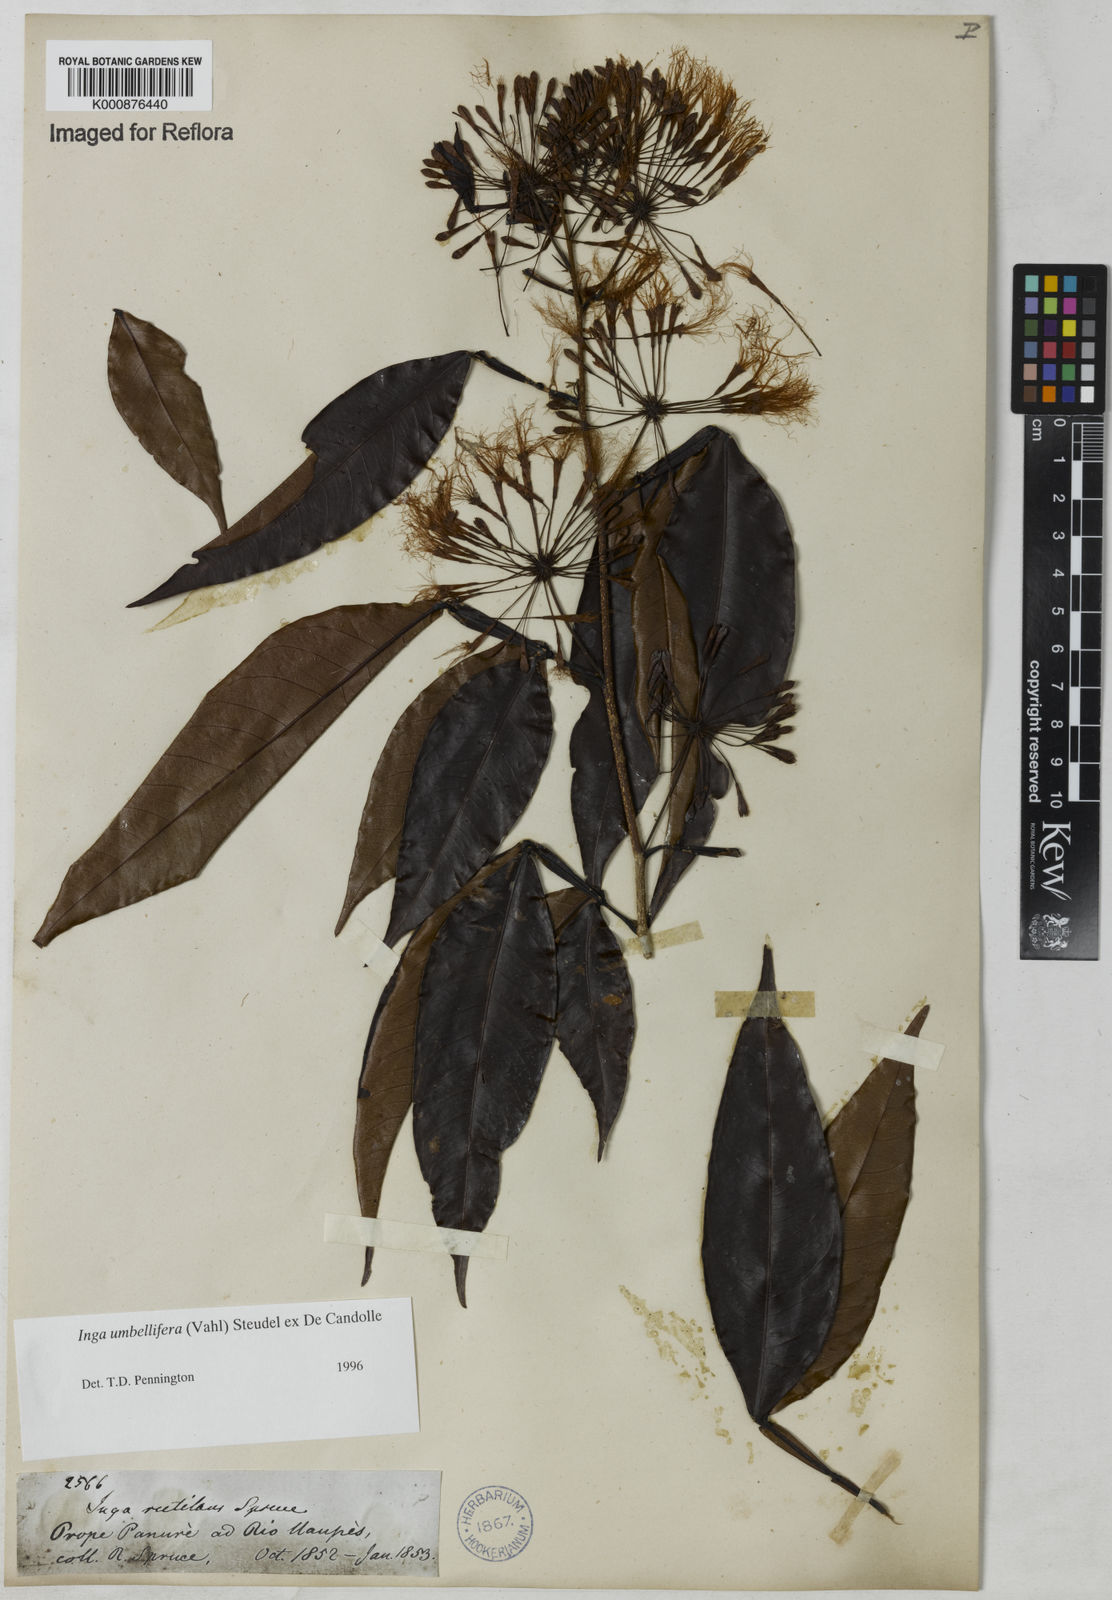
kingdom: Plantae
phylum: Tracheophyta
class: Magnoliopsida
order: Fabales
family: Fabaceae
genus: Inga
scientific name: Inga umbellifera
